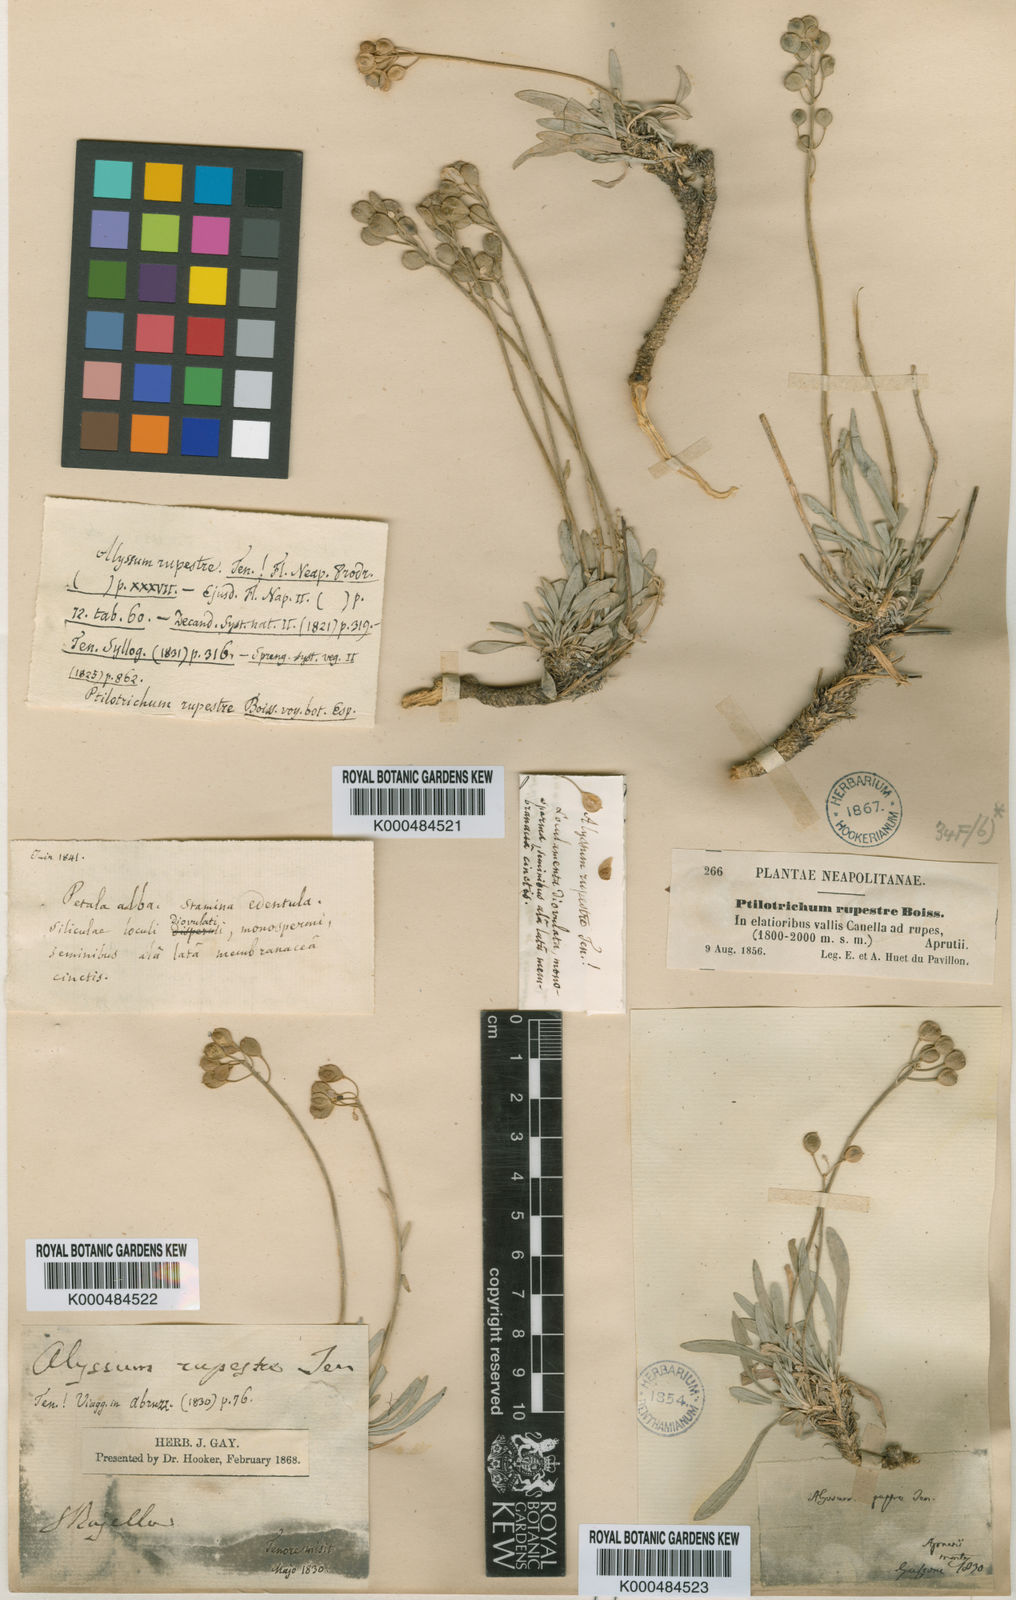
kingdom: Plantae
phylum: Tracheophyta
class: Magnoliopsida
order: Brassicales
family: Brassicaceae
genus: Phyllolepidium
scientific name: Phyllolepidium rupestre
